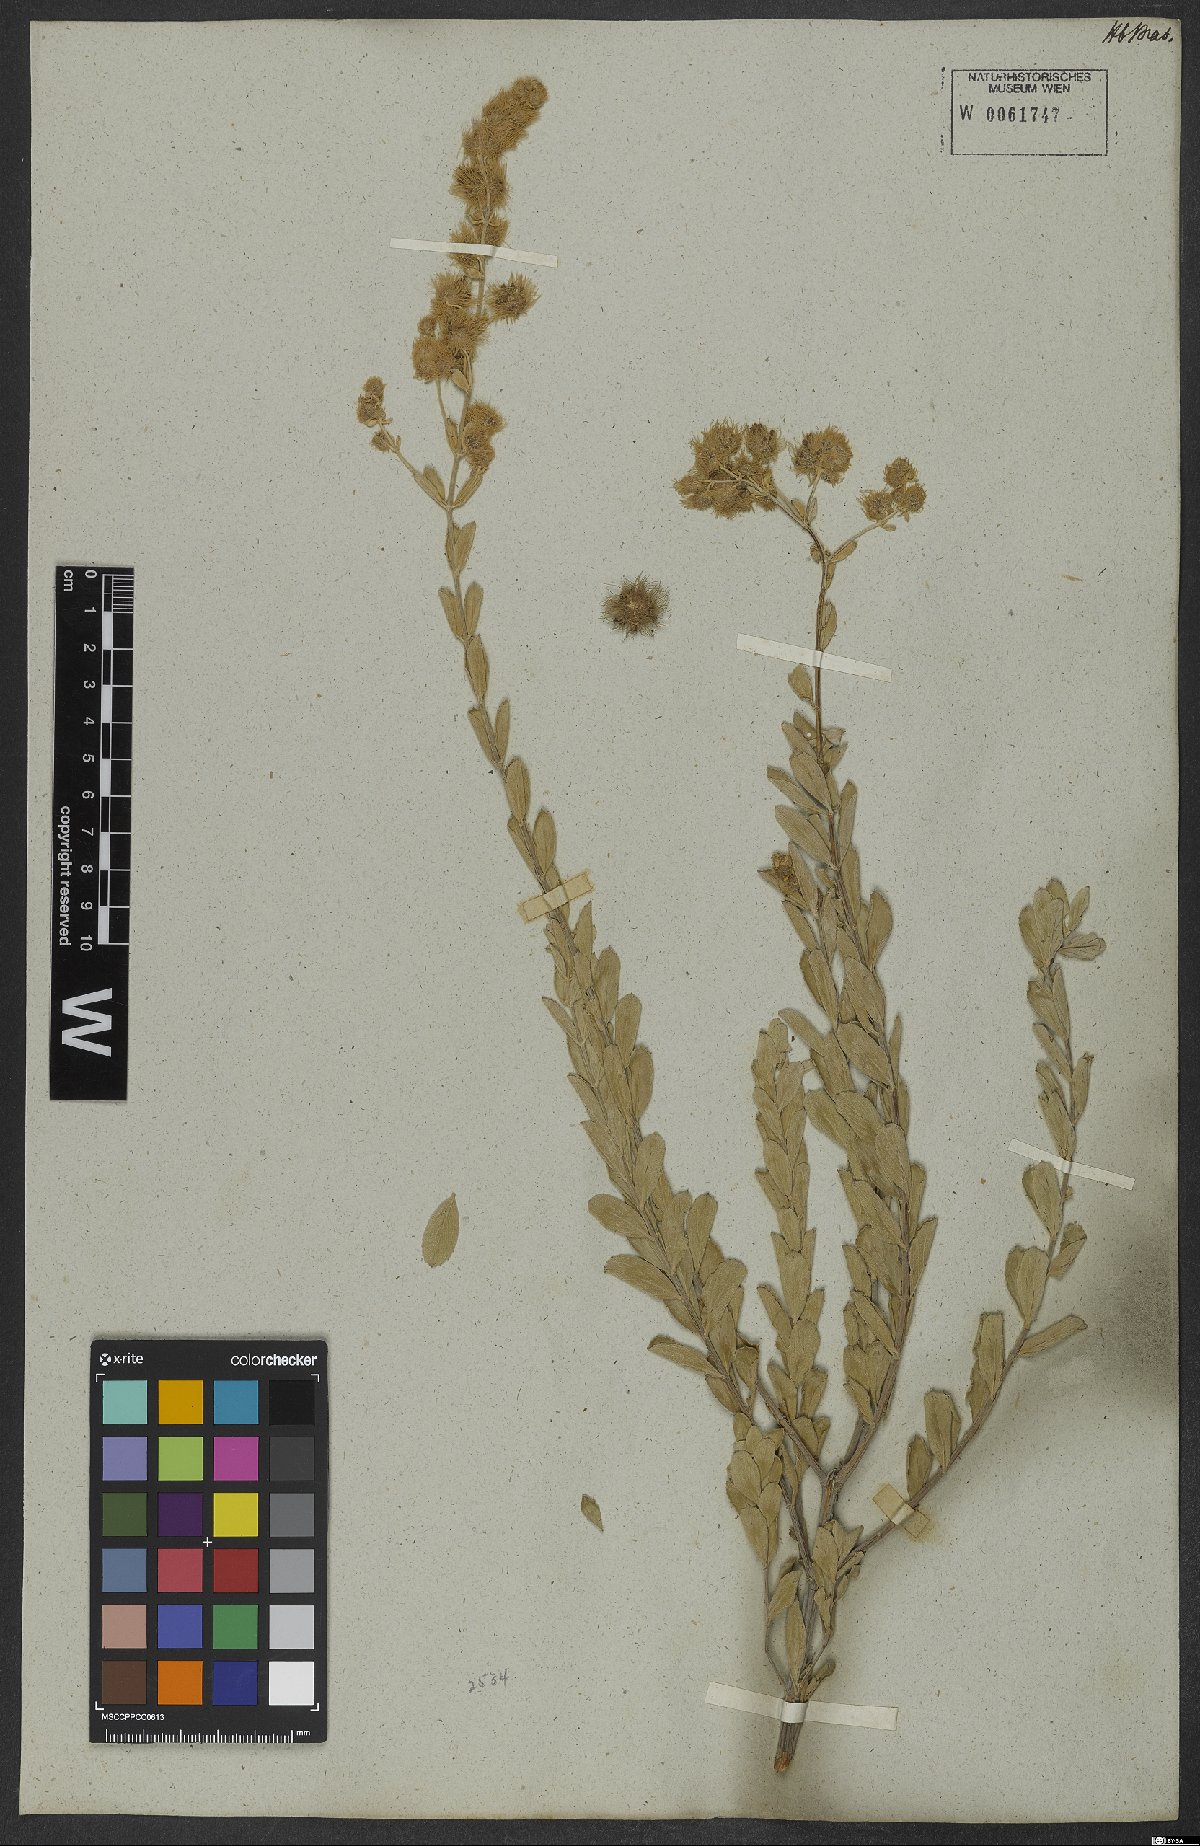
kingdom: Plantae
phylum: Tracheophyta
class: Magnoliopsida
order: Lamiales
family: Lamiaceae
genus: Medusantha
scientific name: Medusantha crinita
